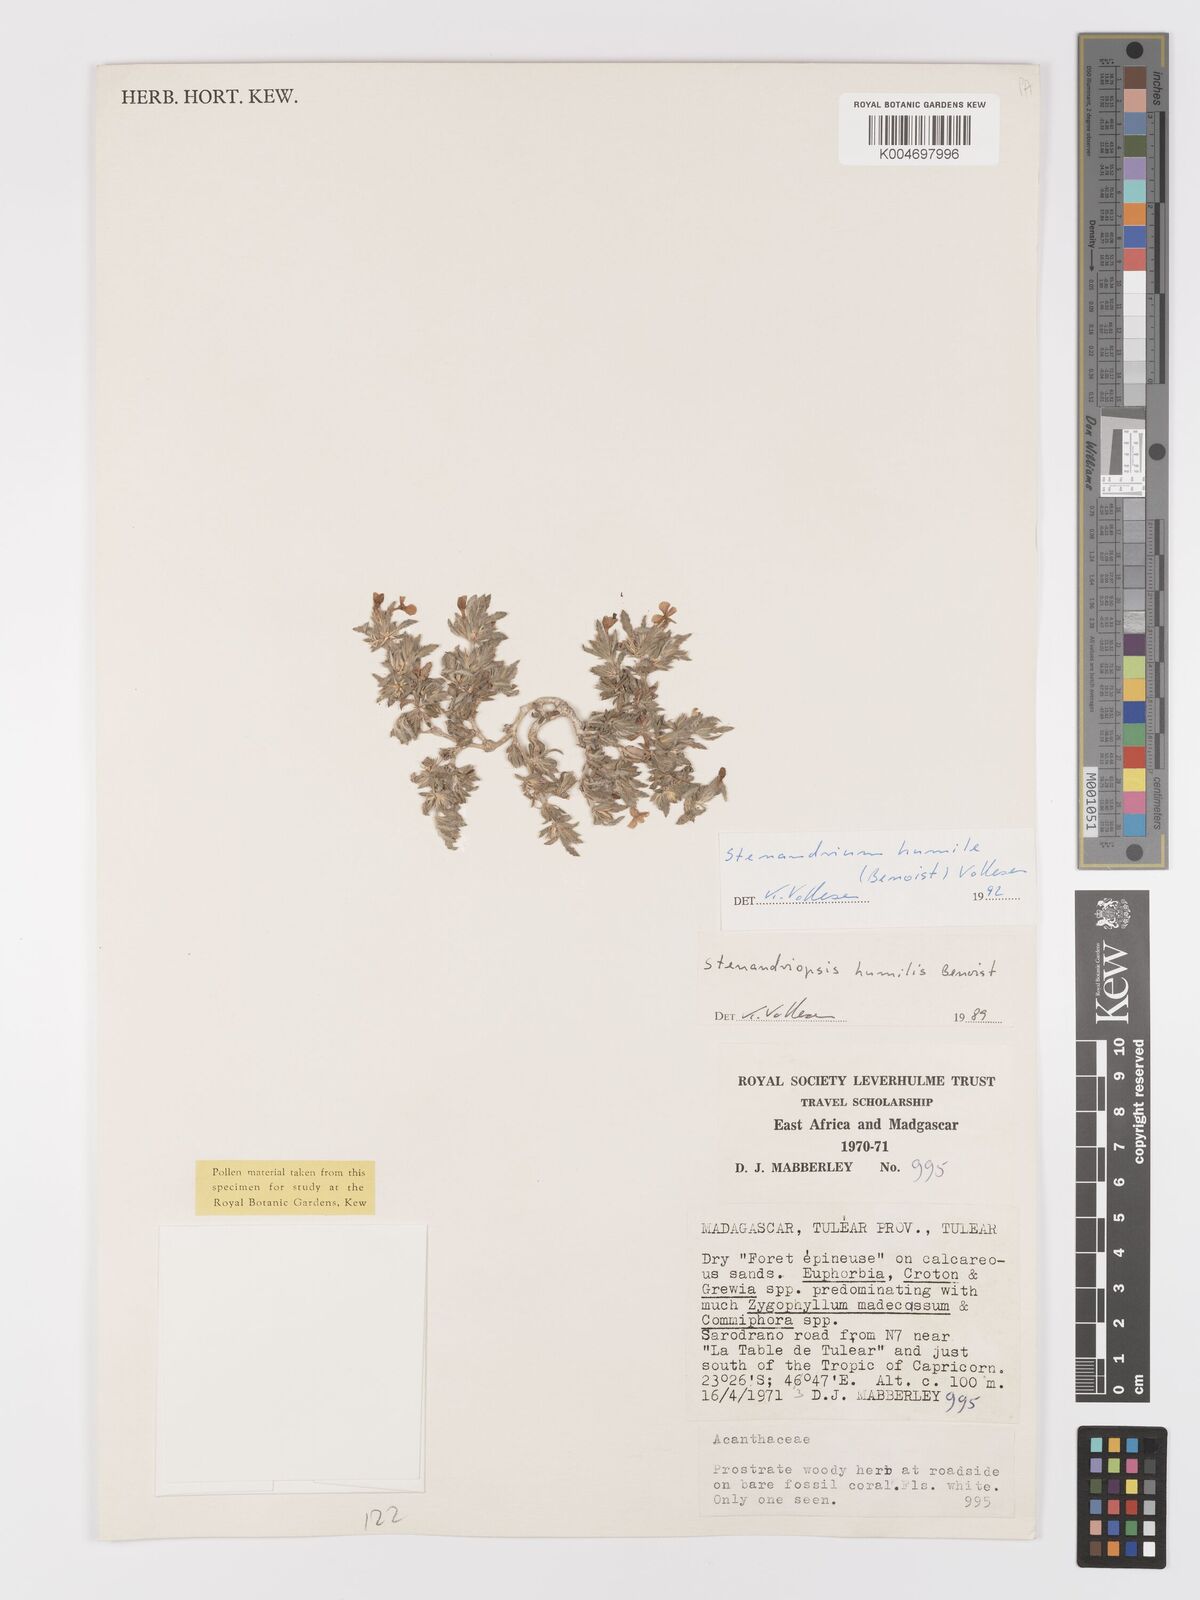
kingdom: Plantae
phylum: Tracheophyta
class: Magnoliopsida
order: Lamiales
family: Acanthaceae
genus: Stenandriopsis
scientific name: Stenandriopsis keraudrenae
